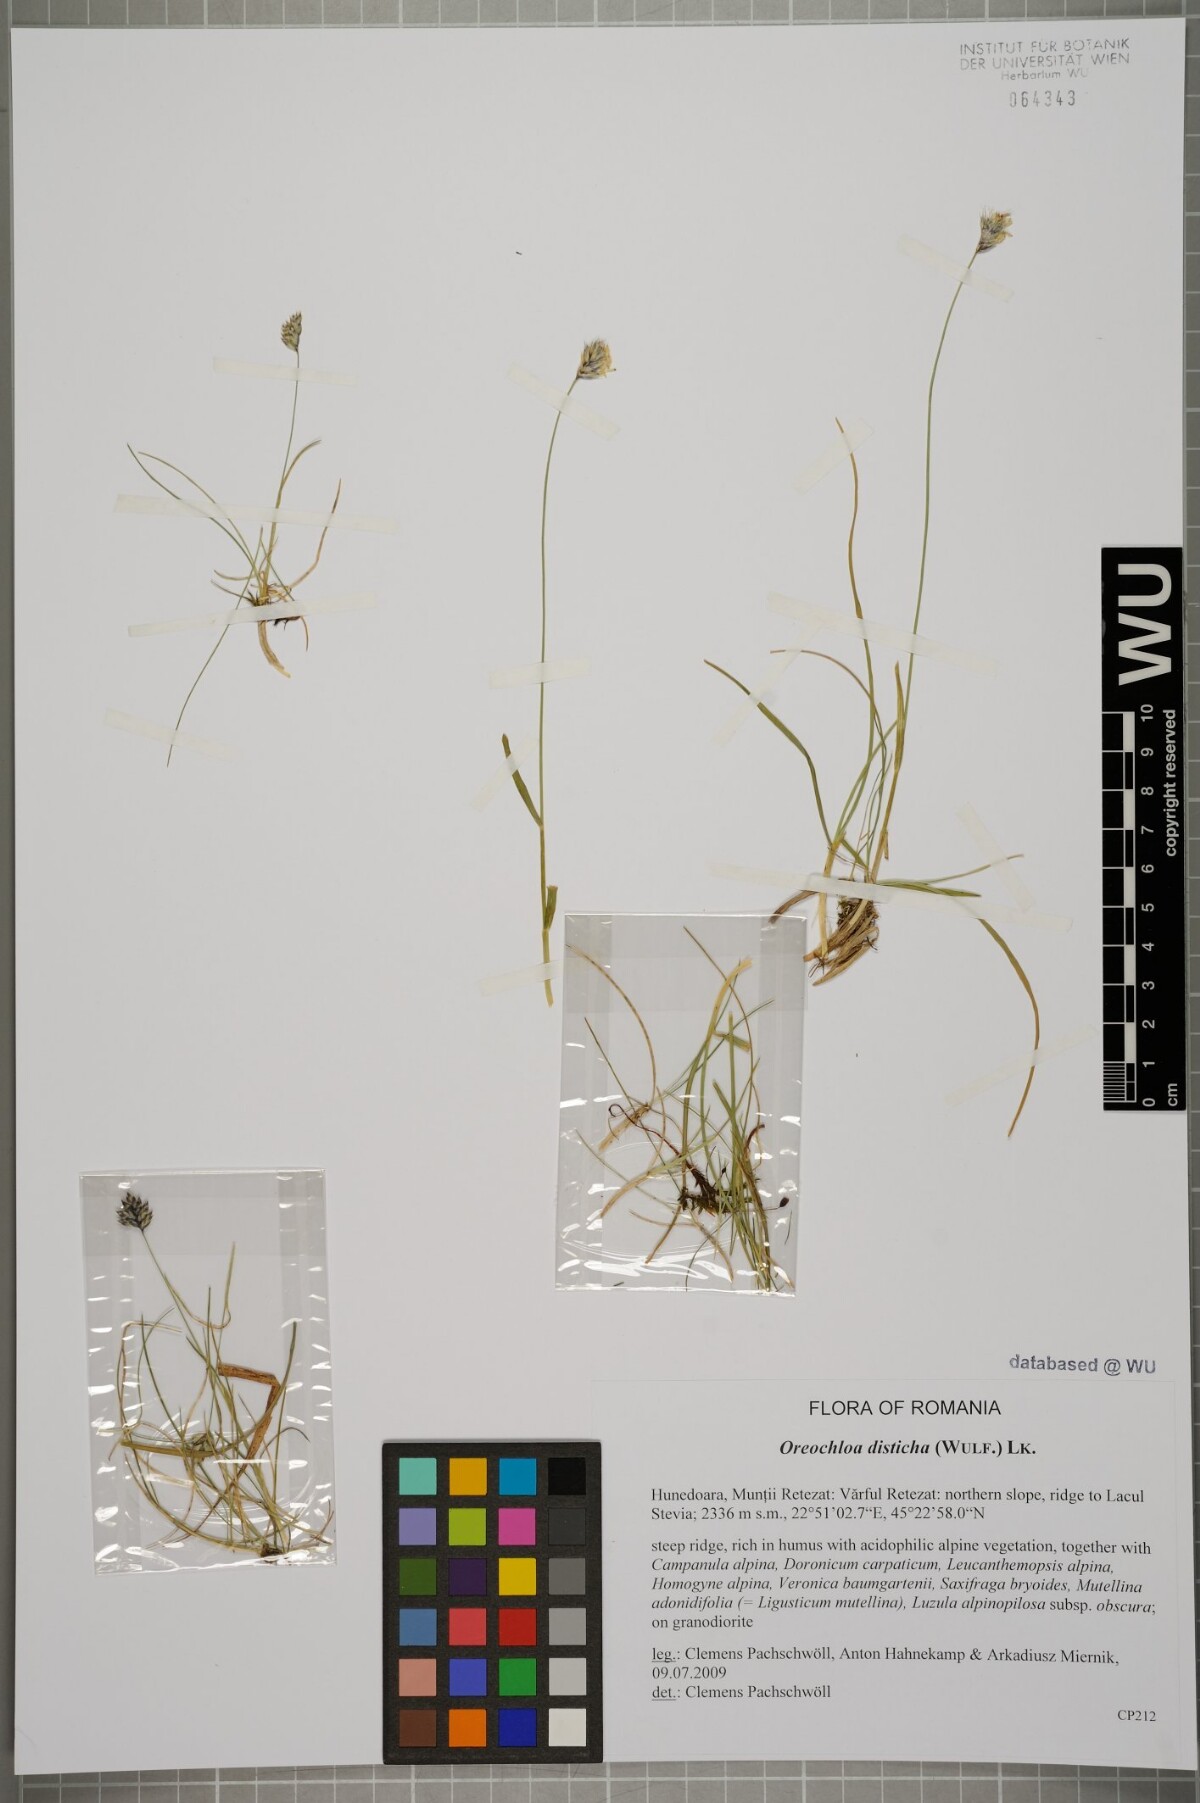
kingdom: Plantae
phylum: Tracheophyta
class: Liliopsida
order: Poales
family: Poaceae
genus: Oreochloa
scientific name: Oreochloa disticha
